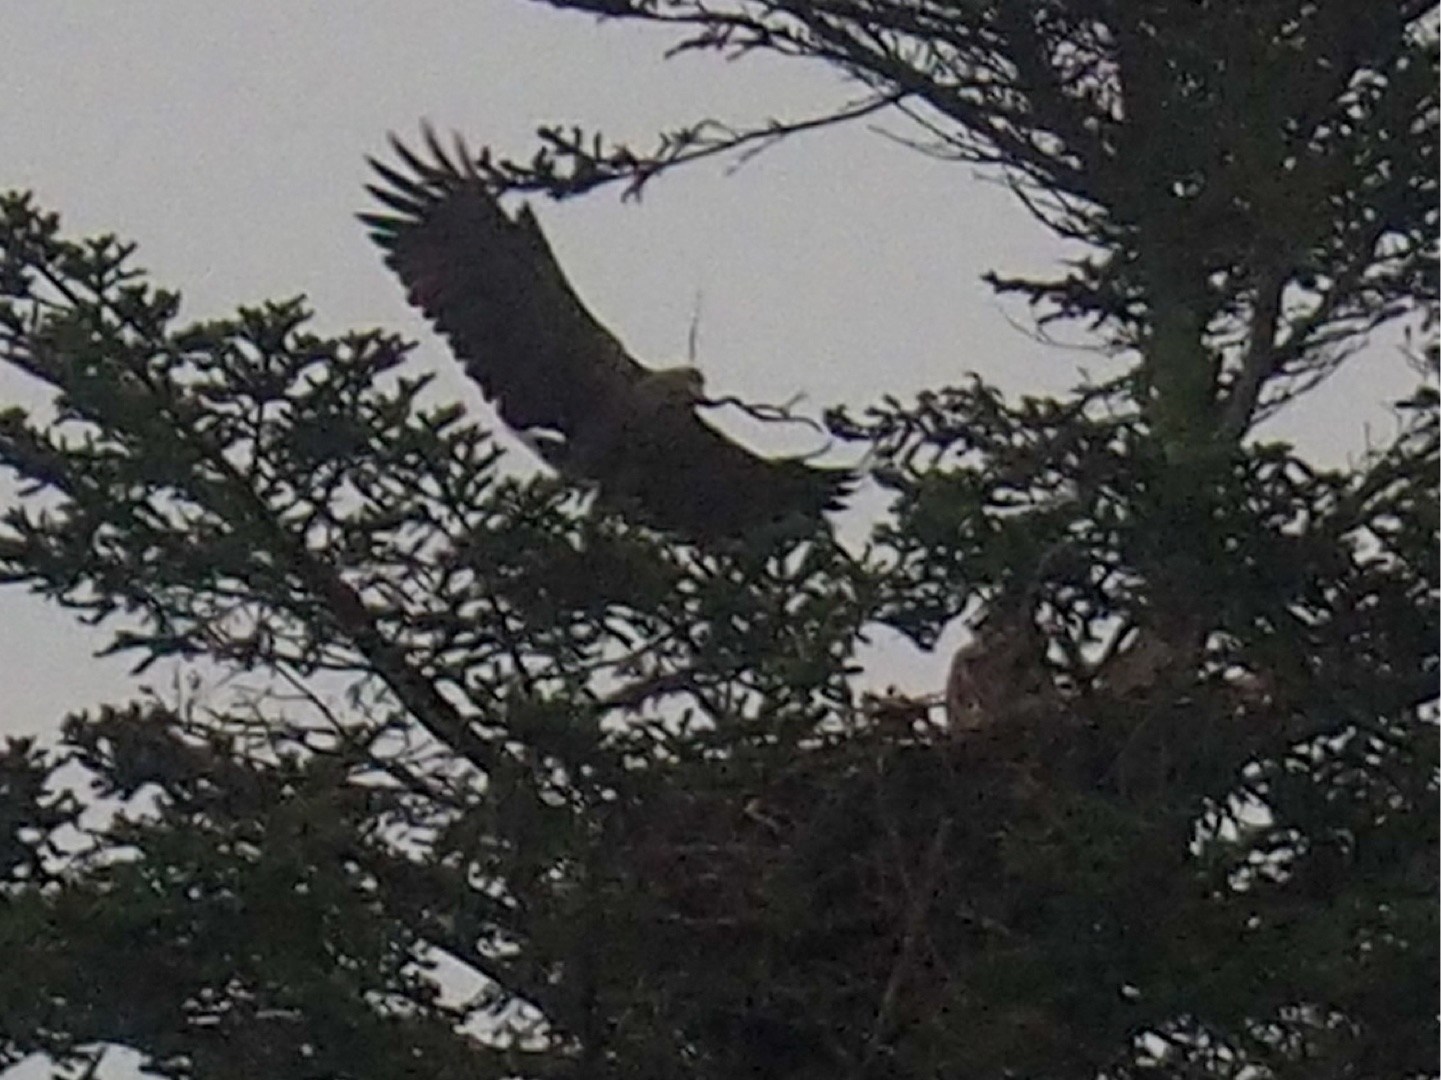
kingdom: Animalia
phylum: Chordata
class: Aves
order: Accipitriformes
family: Accipitridae
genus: Haliaeetus
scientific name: Haliaeetus albicilla
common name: Havørn
